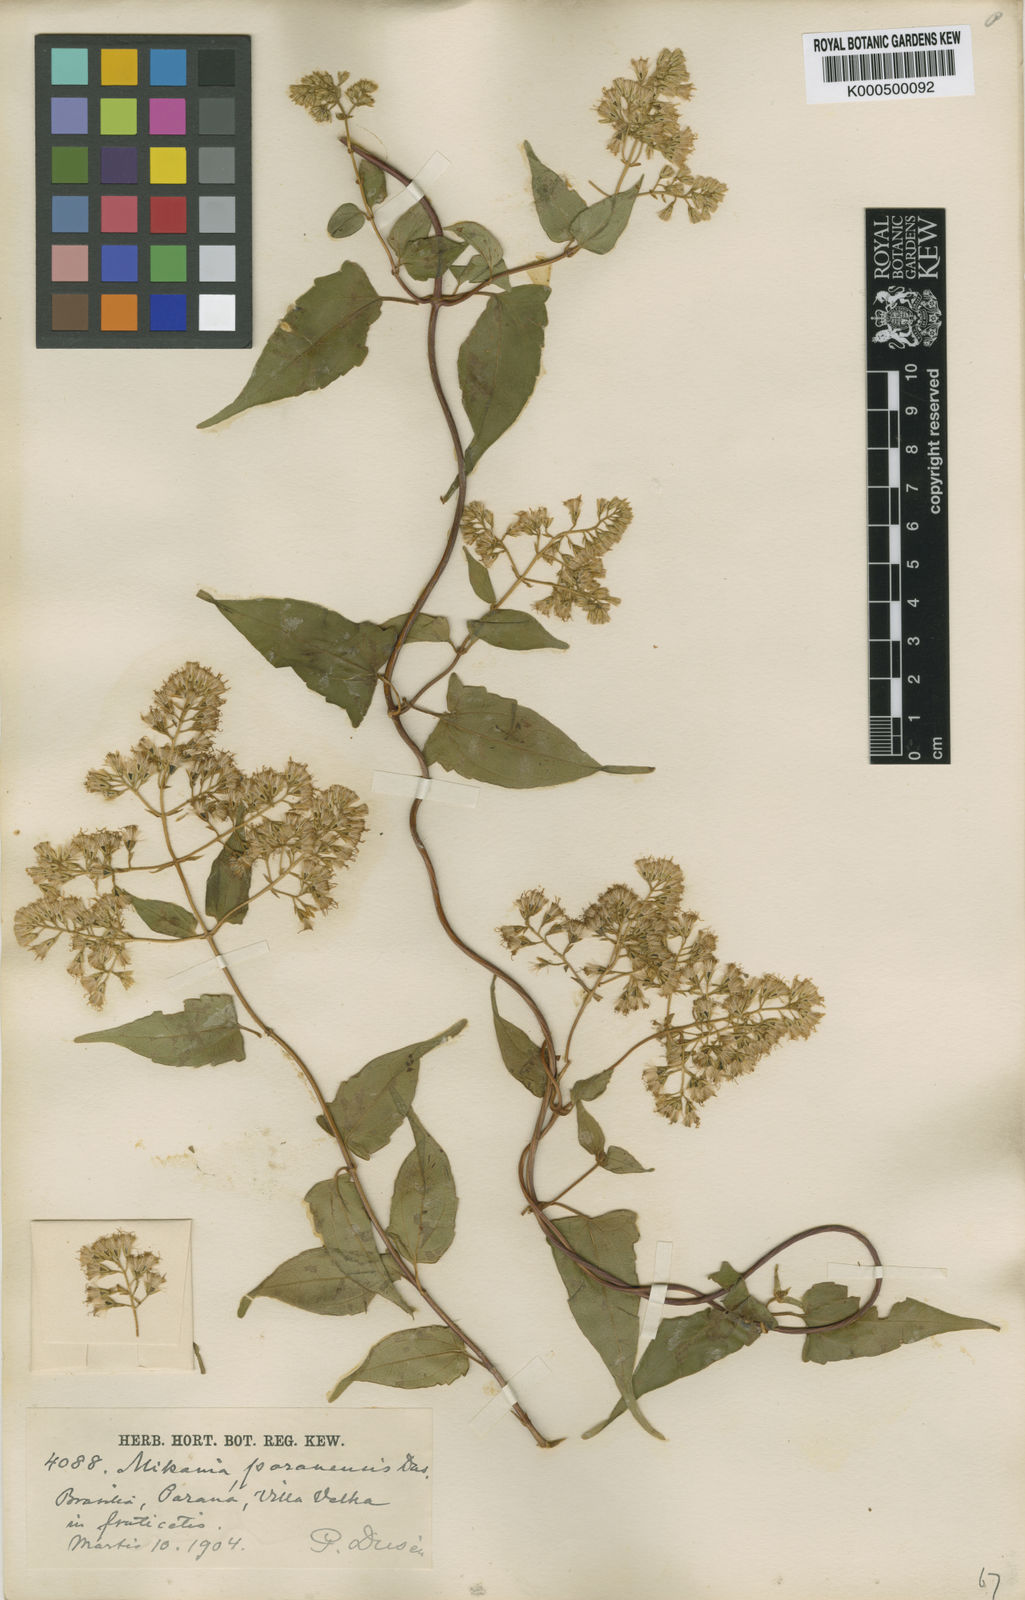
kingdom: Plantae
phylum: Tracheophyta
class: Magnoliopsida
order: Asterales
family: Asteraceae
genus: Mikania
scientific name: Mikania
